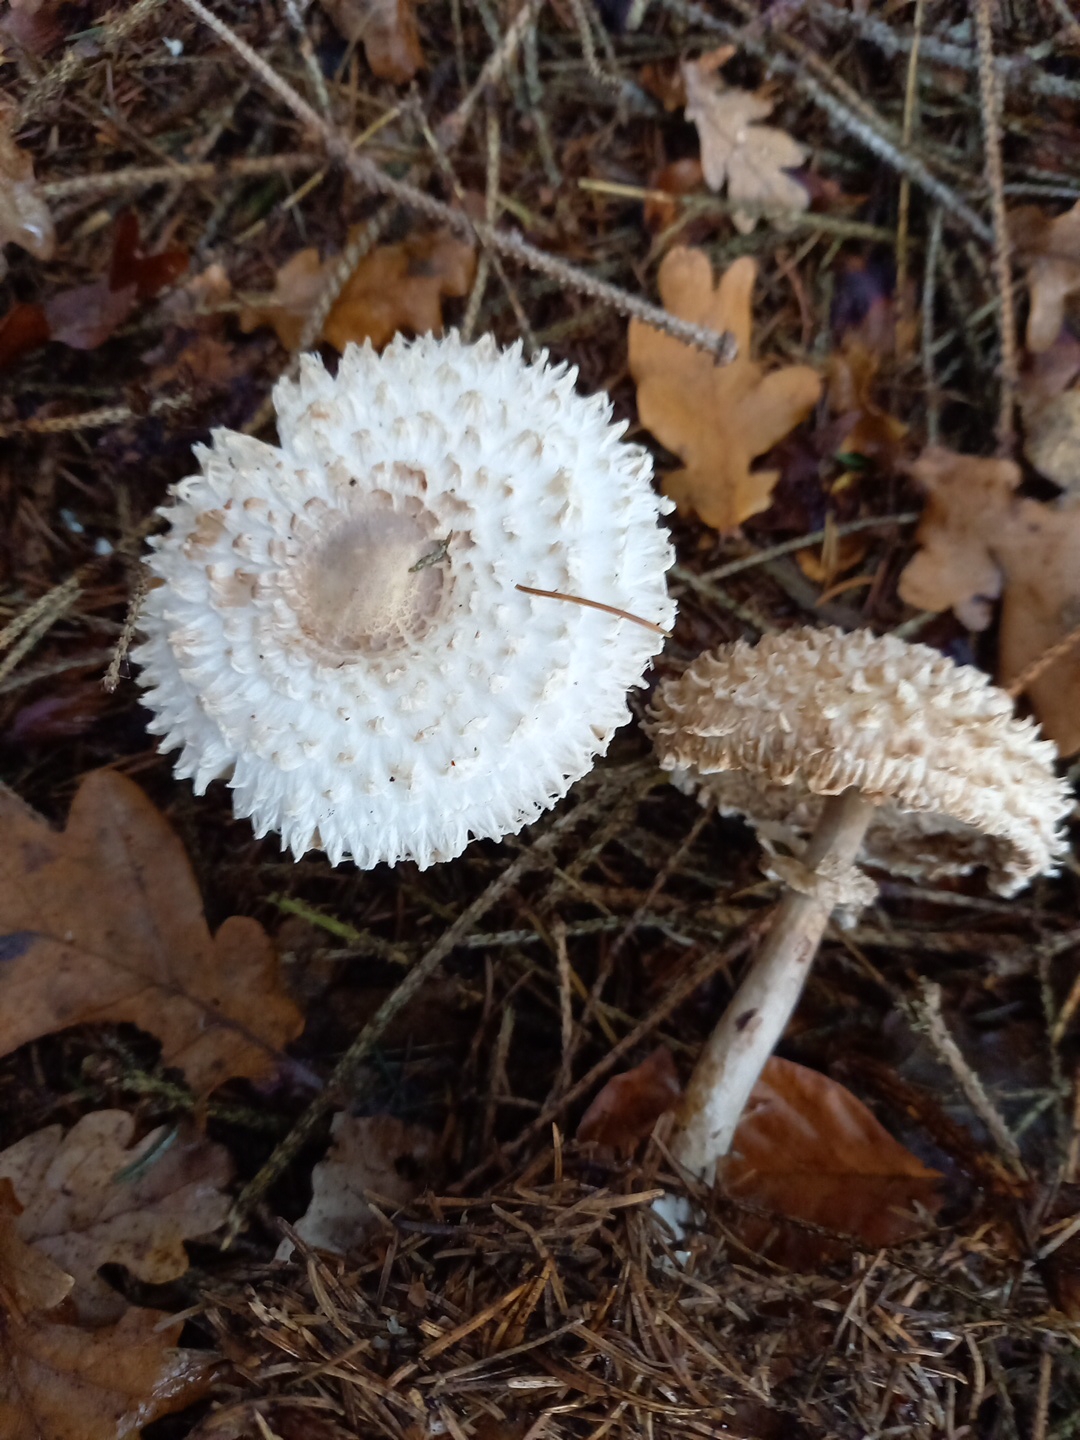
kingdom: Fungi
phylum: Basidiomycota
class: Agaricomycetes
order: Agaricales
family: Agaricaceae
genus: Leucoagaricus
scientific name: Leucoagaricus nympharum
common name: gran-silkehat
